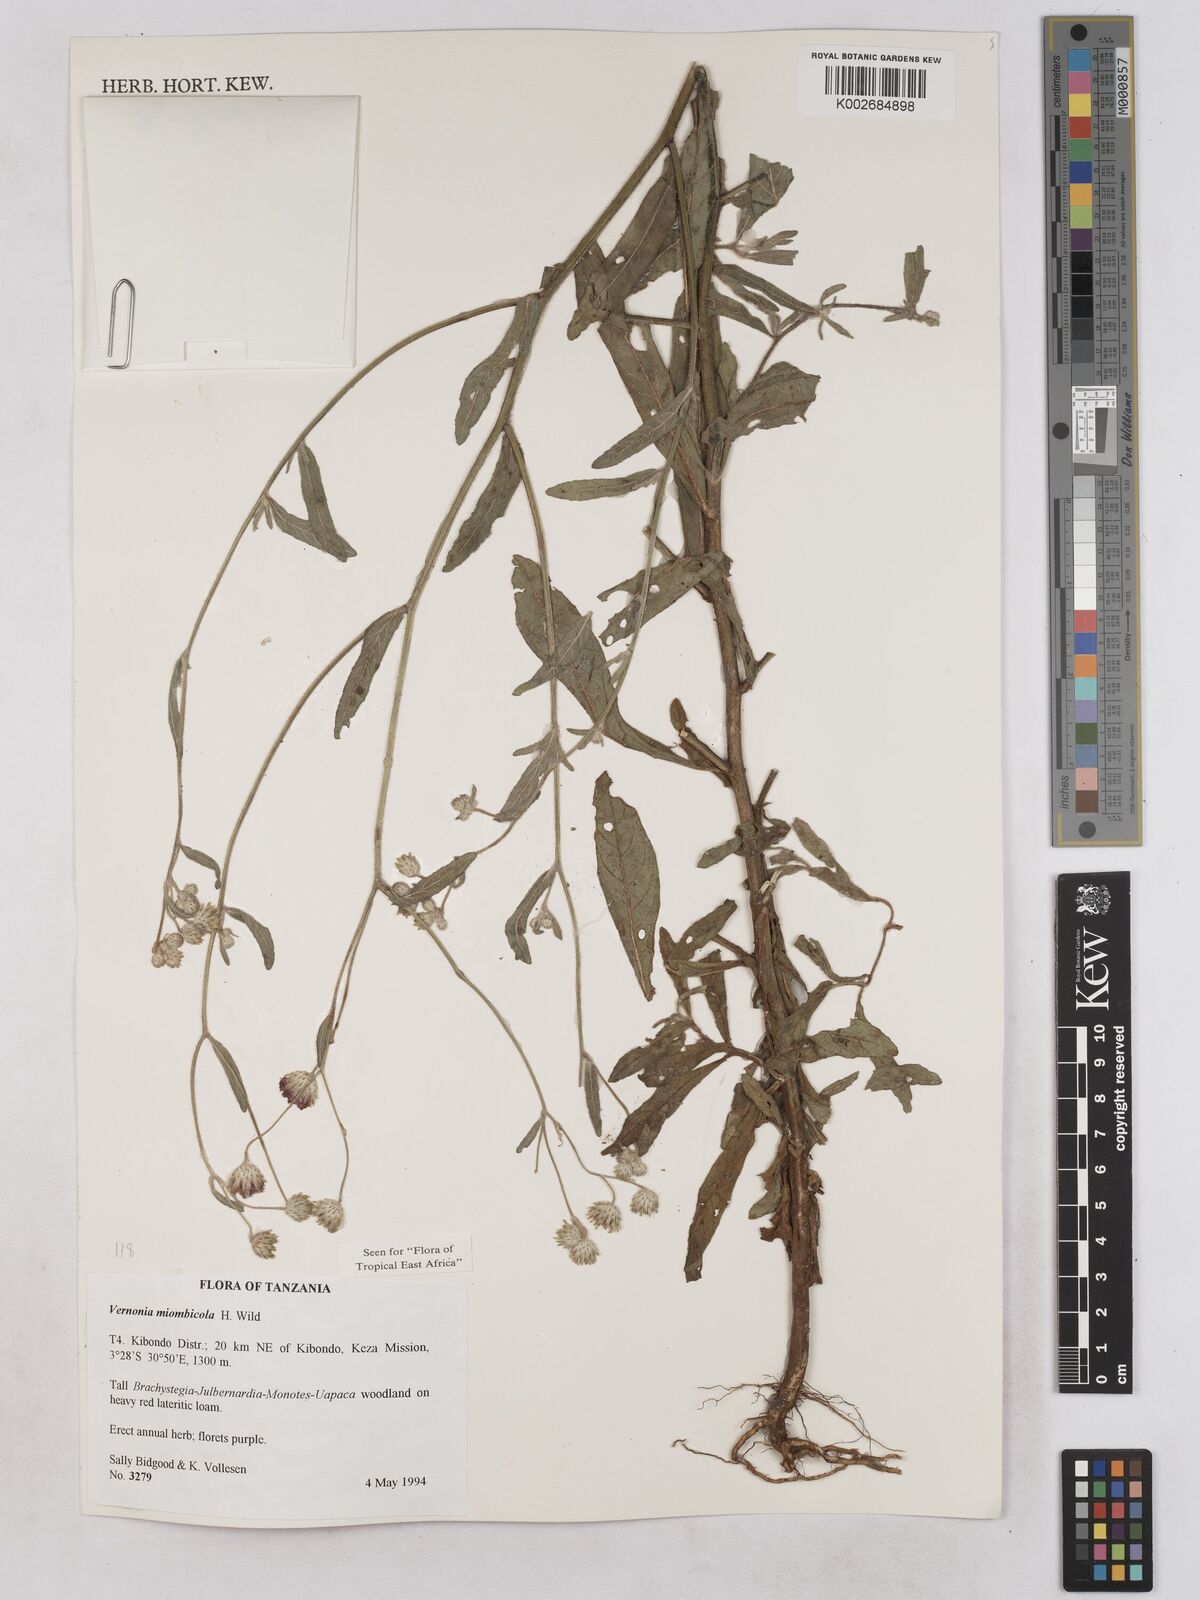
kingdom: Plantae
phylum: Tracheophyta
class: Magnoliopsida
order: Asterales
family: Asteraceae
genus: Vernonia
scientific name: Vernonia miombicola
